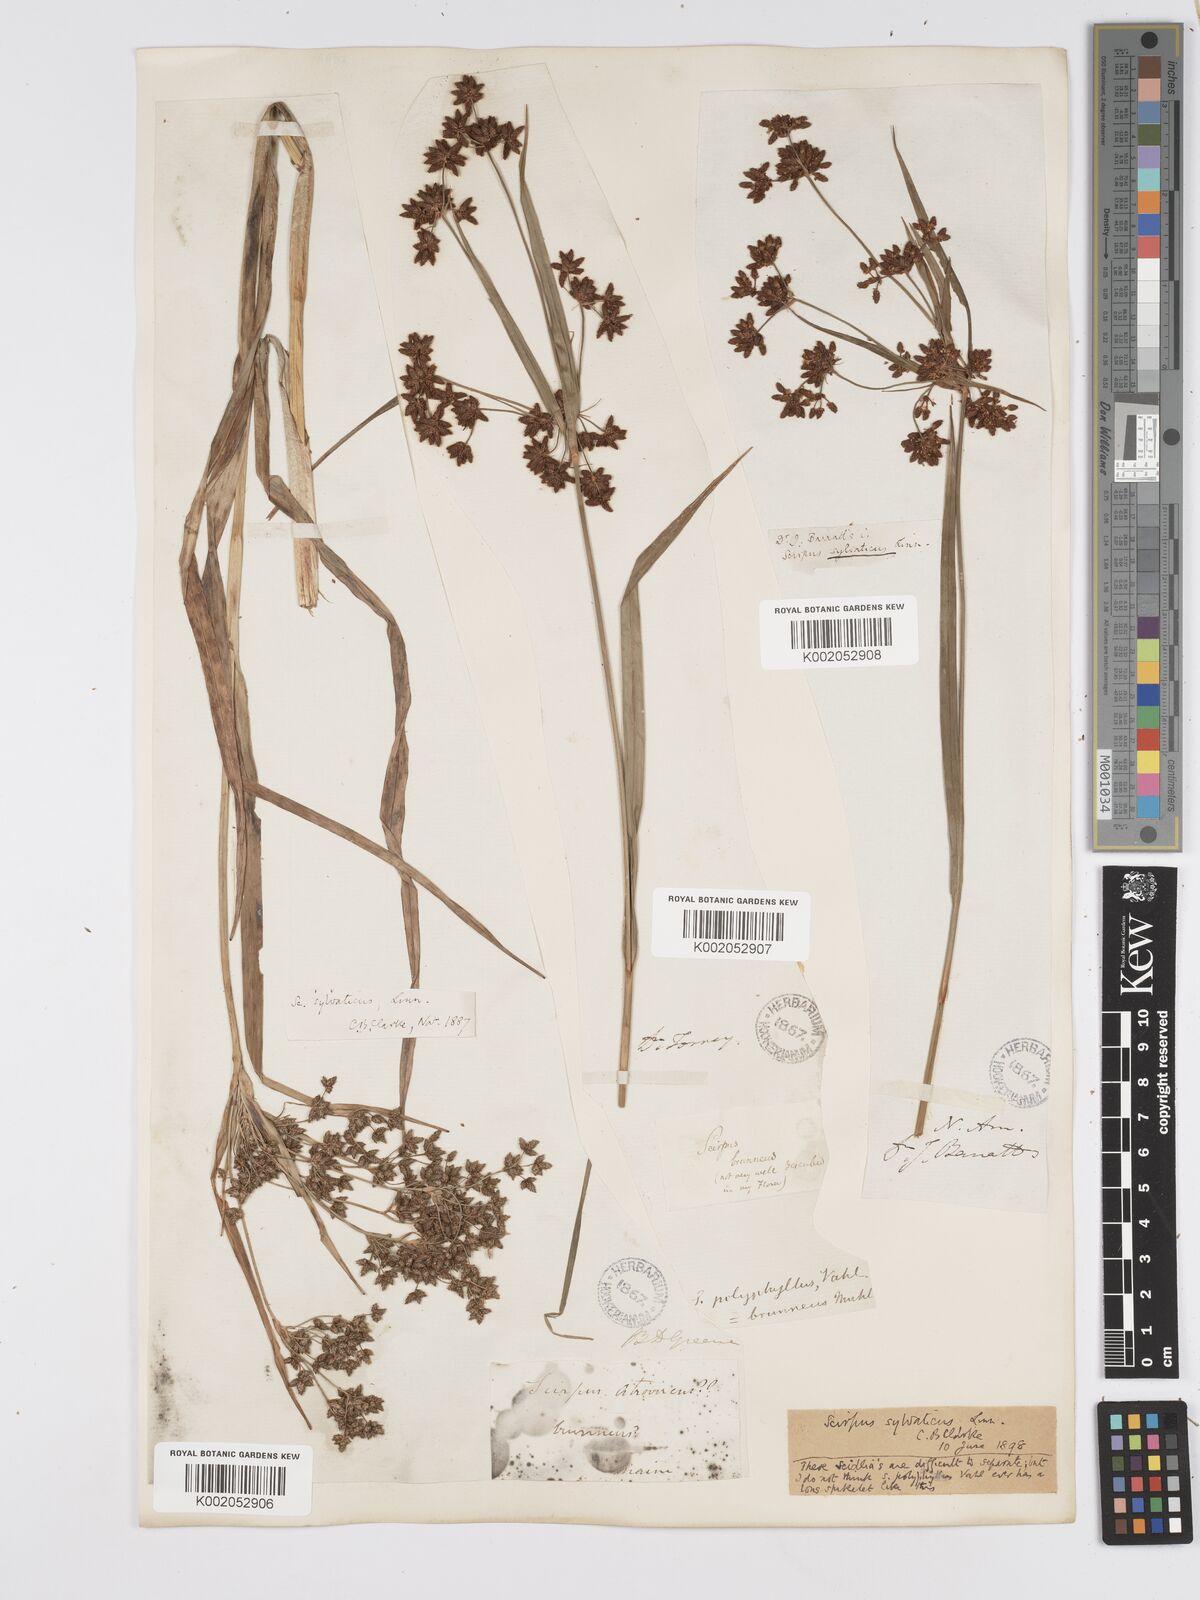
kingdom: Plantae
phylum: Tracheophyta
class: Liliopsida
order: Poales
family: Cyperaceae
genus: Scirpus
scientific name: Scirpus sylvaticus
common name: Wood club-rush
